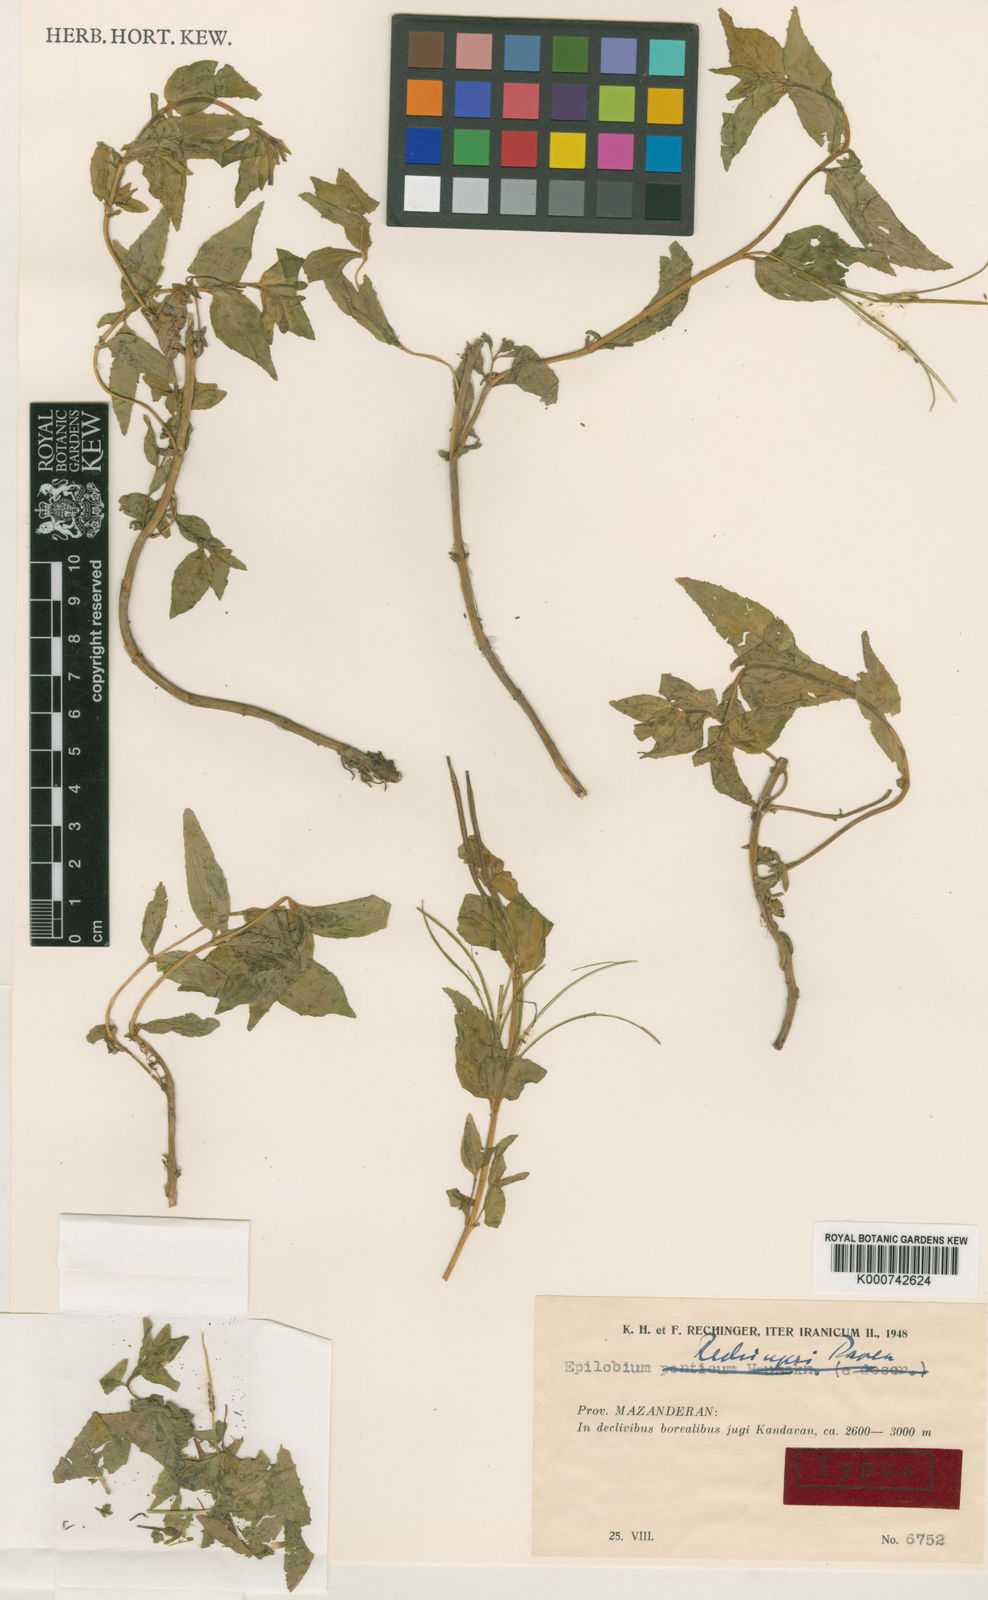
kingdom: Plantae
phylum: Tracheophyta
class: Magnoliopsida
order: Myrtales
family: Onagraceae
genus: Epilobium
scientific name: Epilobium rechingeri
